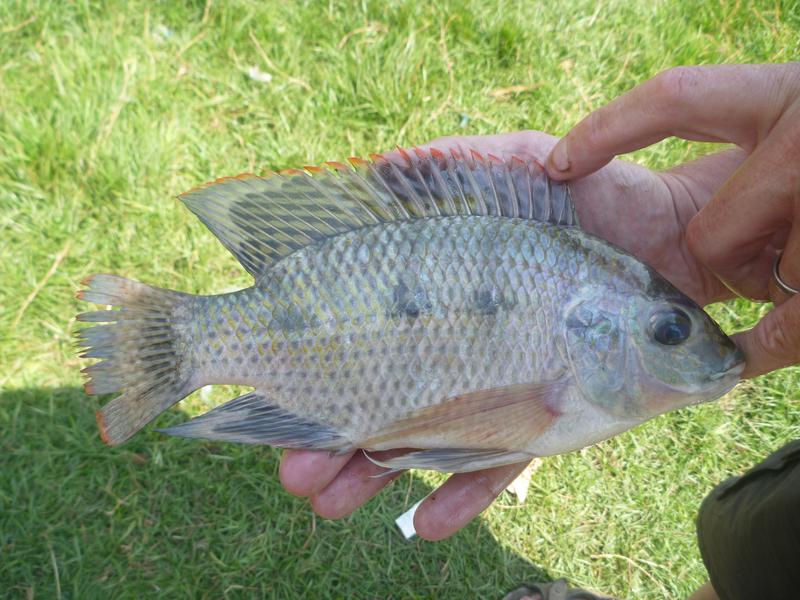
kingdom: Animalia
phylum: Chordata
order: Perciformes
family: Cichlidae
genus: Oreochromis
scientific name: Oreochromis upembae
